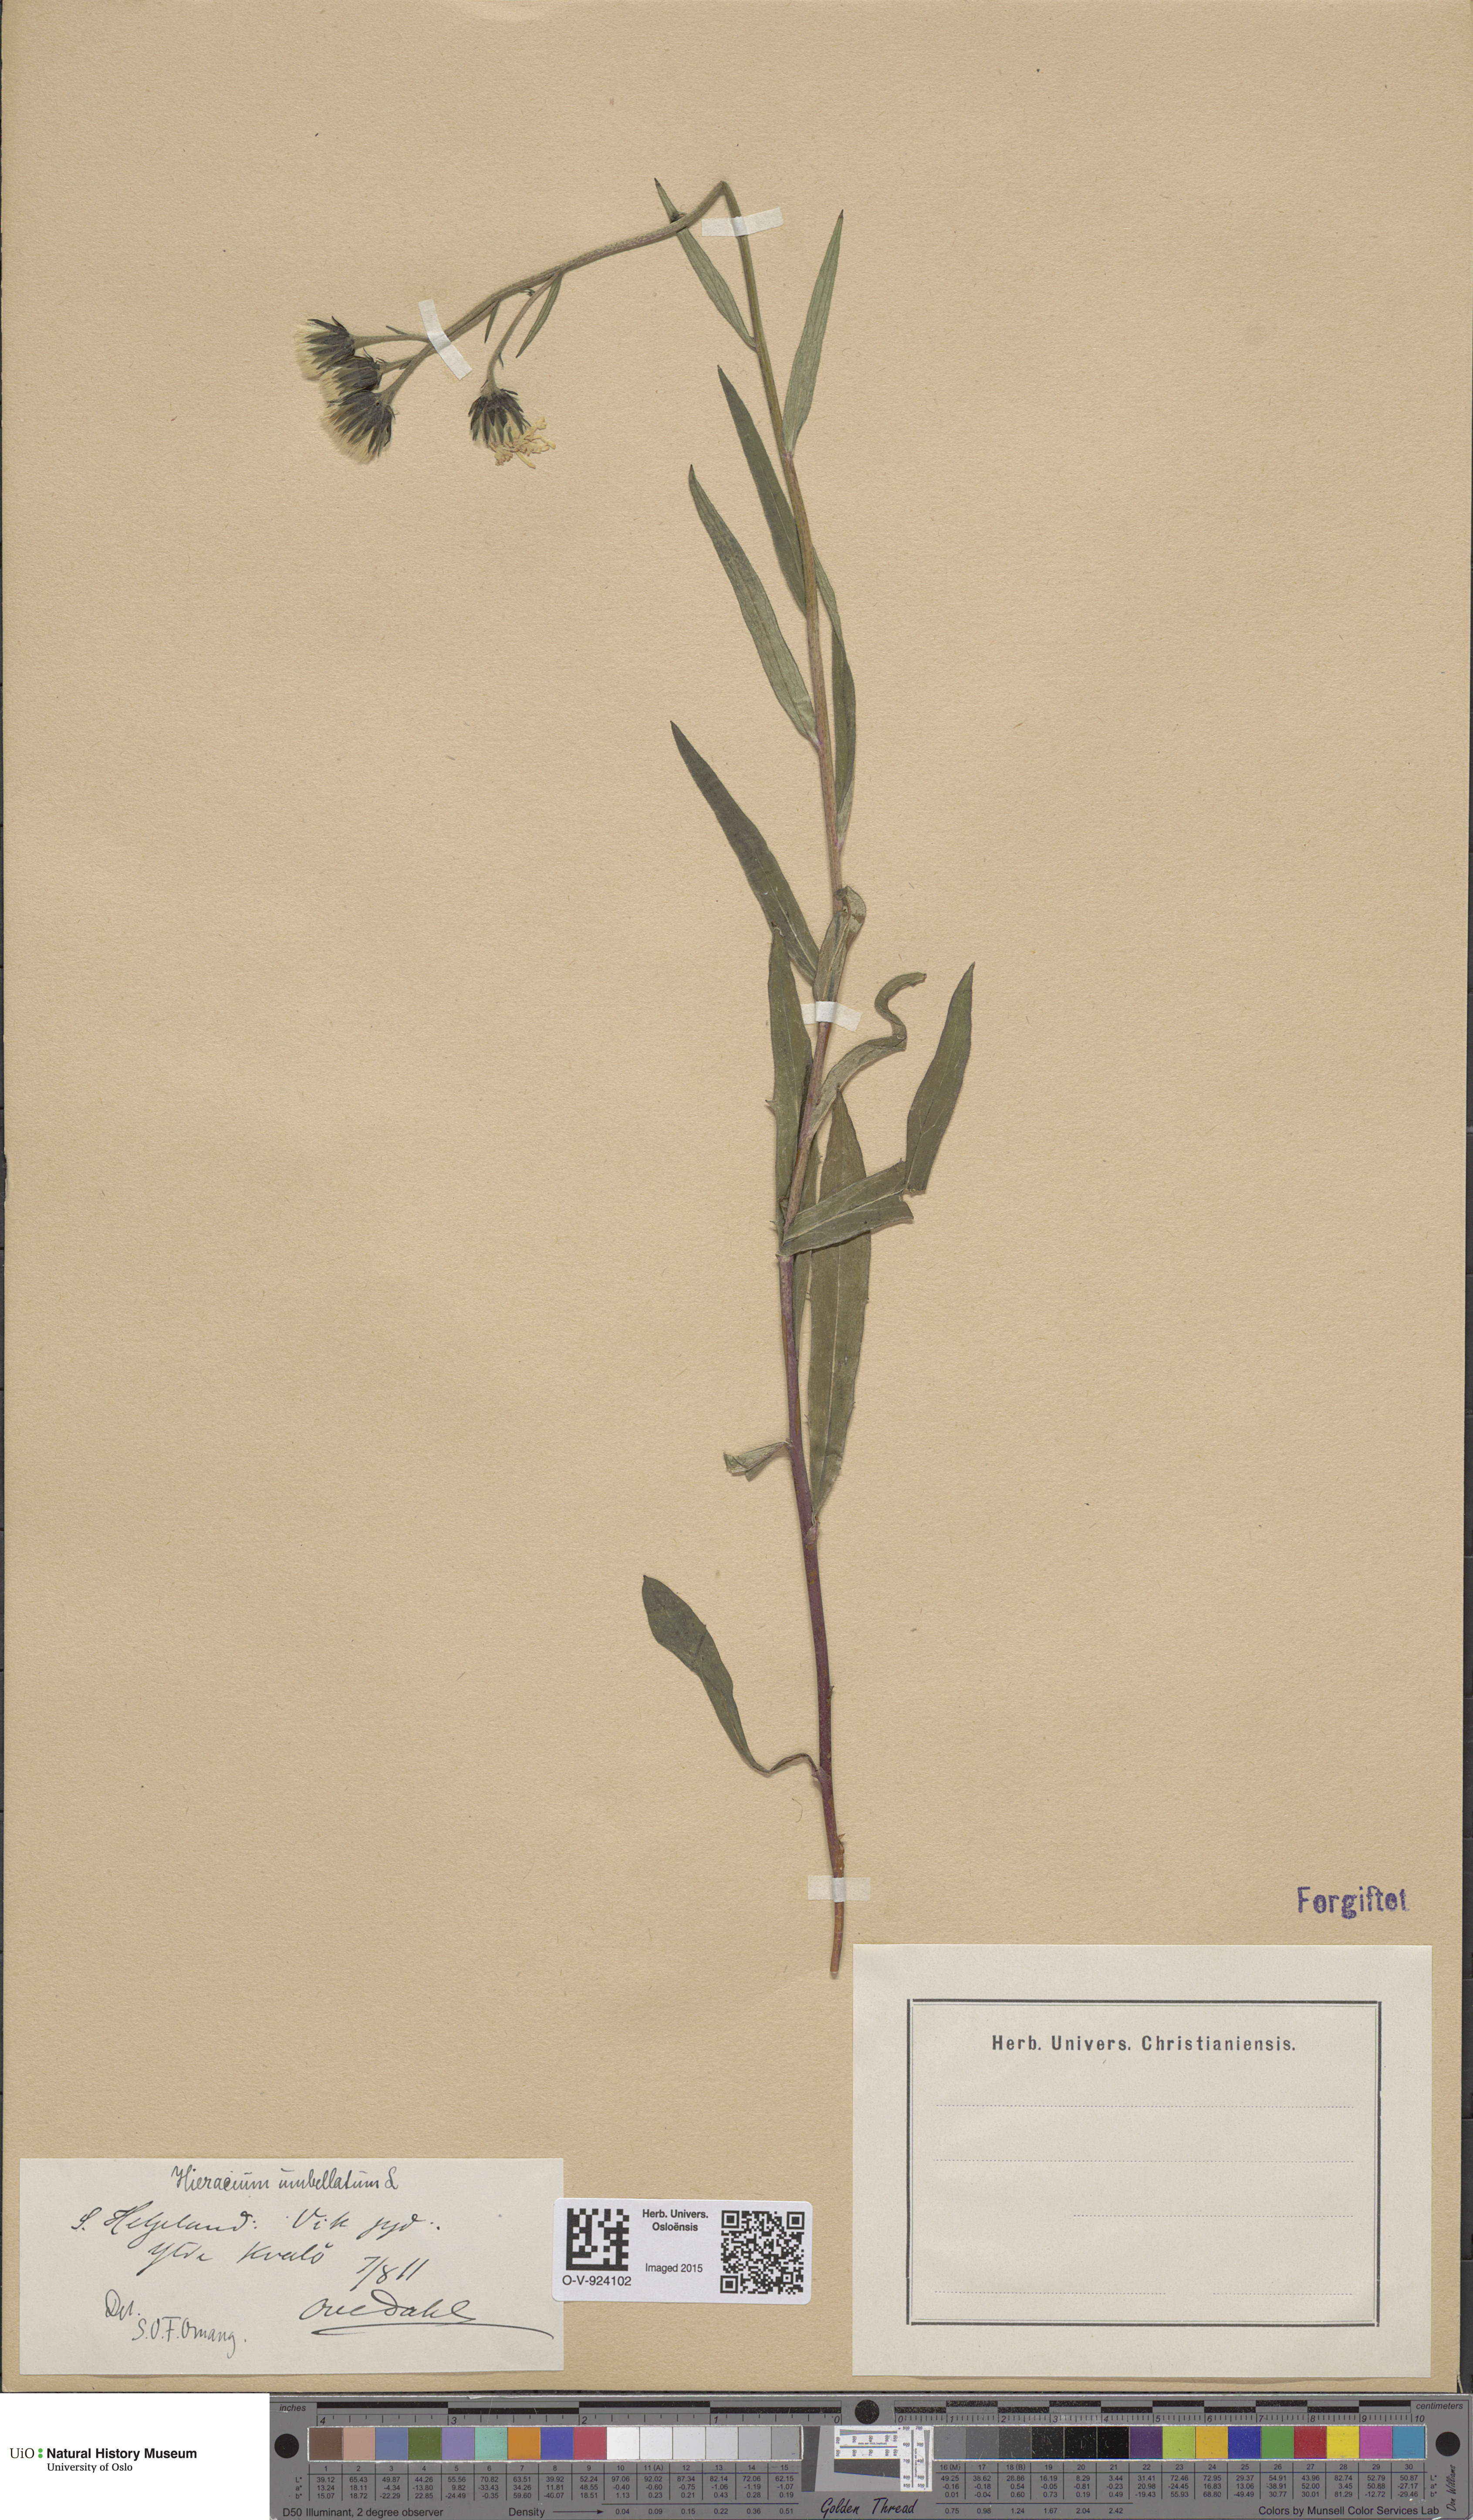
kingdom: Plantae
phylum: Tracheophyta
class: Magnoliopsida
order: Asterales
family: Asteraceae
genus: Hieracium
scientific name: Hieracium umbellatum
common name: Northern hawkweed
